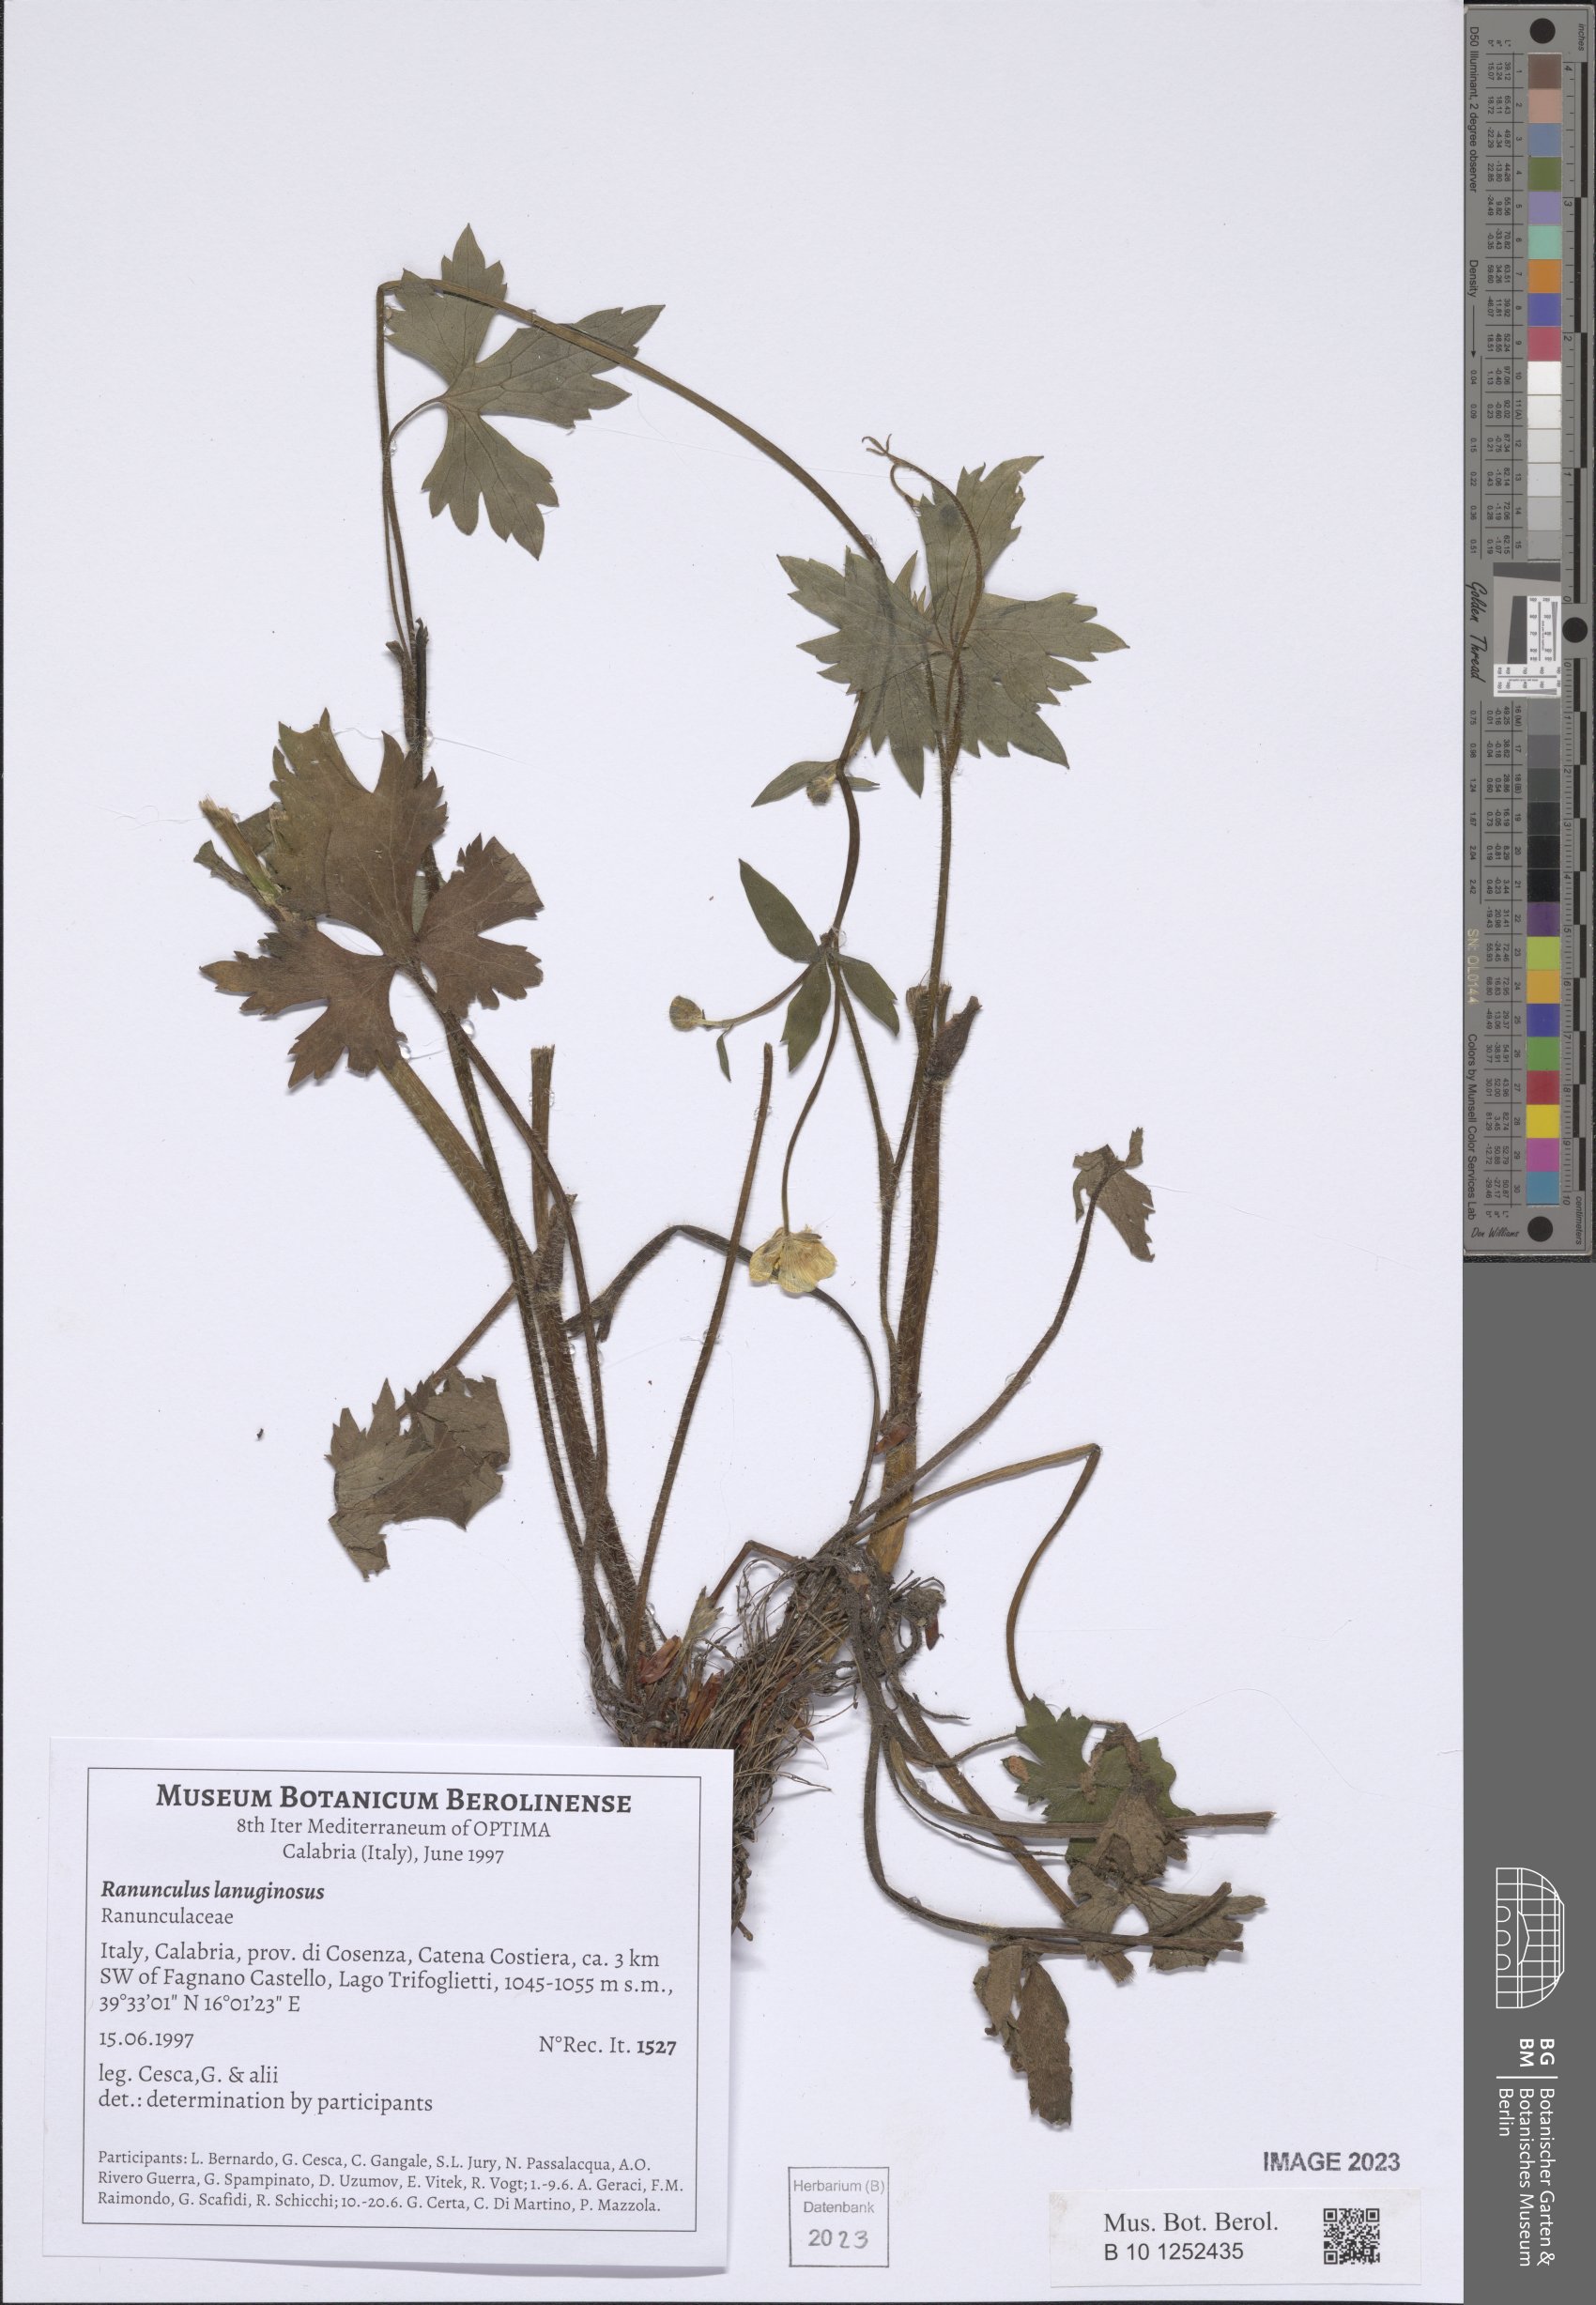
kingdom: Plantae
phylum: Tracheophyta
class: Magnoliopsida
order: Ranunculales
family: Ranunculaceae
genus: Ranunculus
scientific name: Ranunculus lanuginosus
